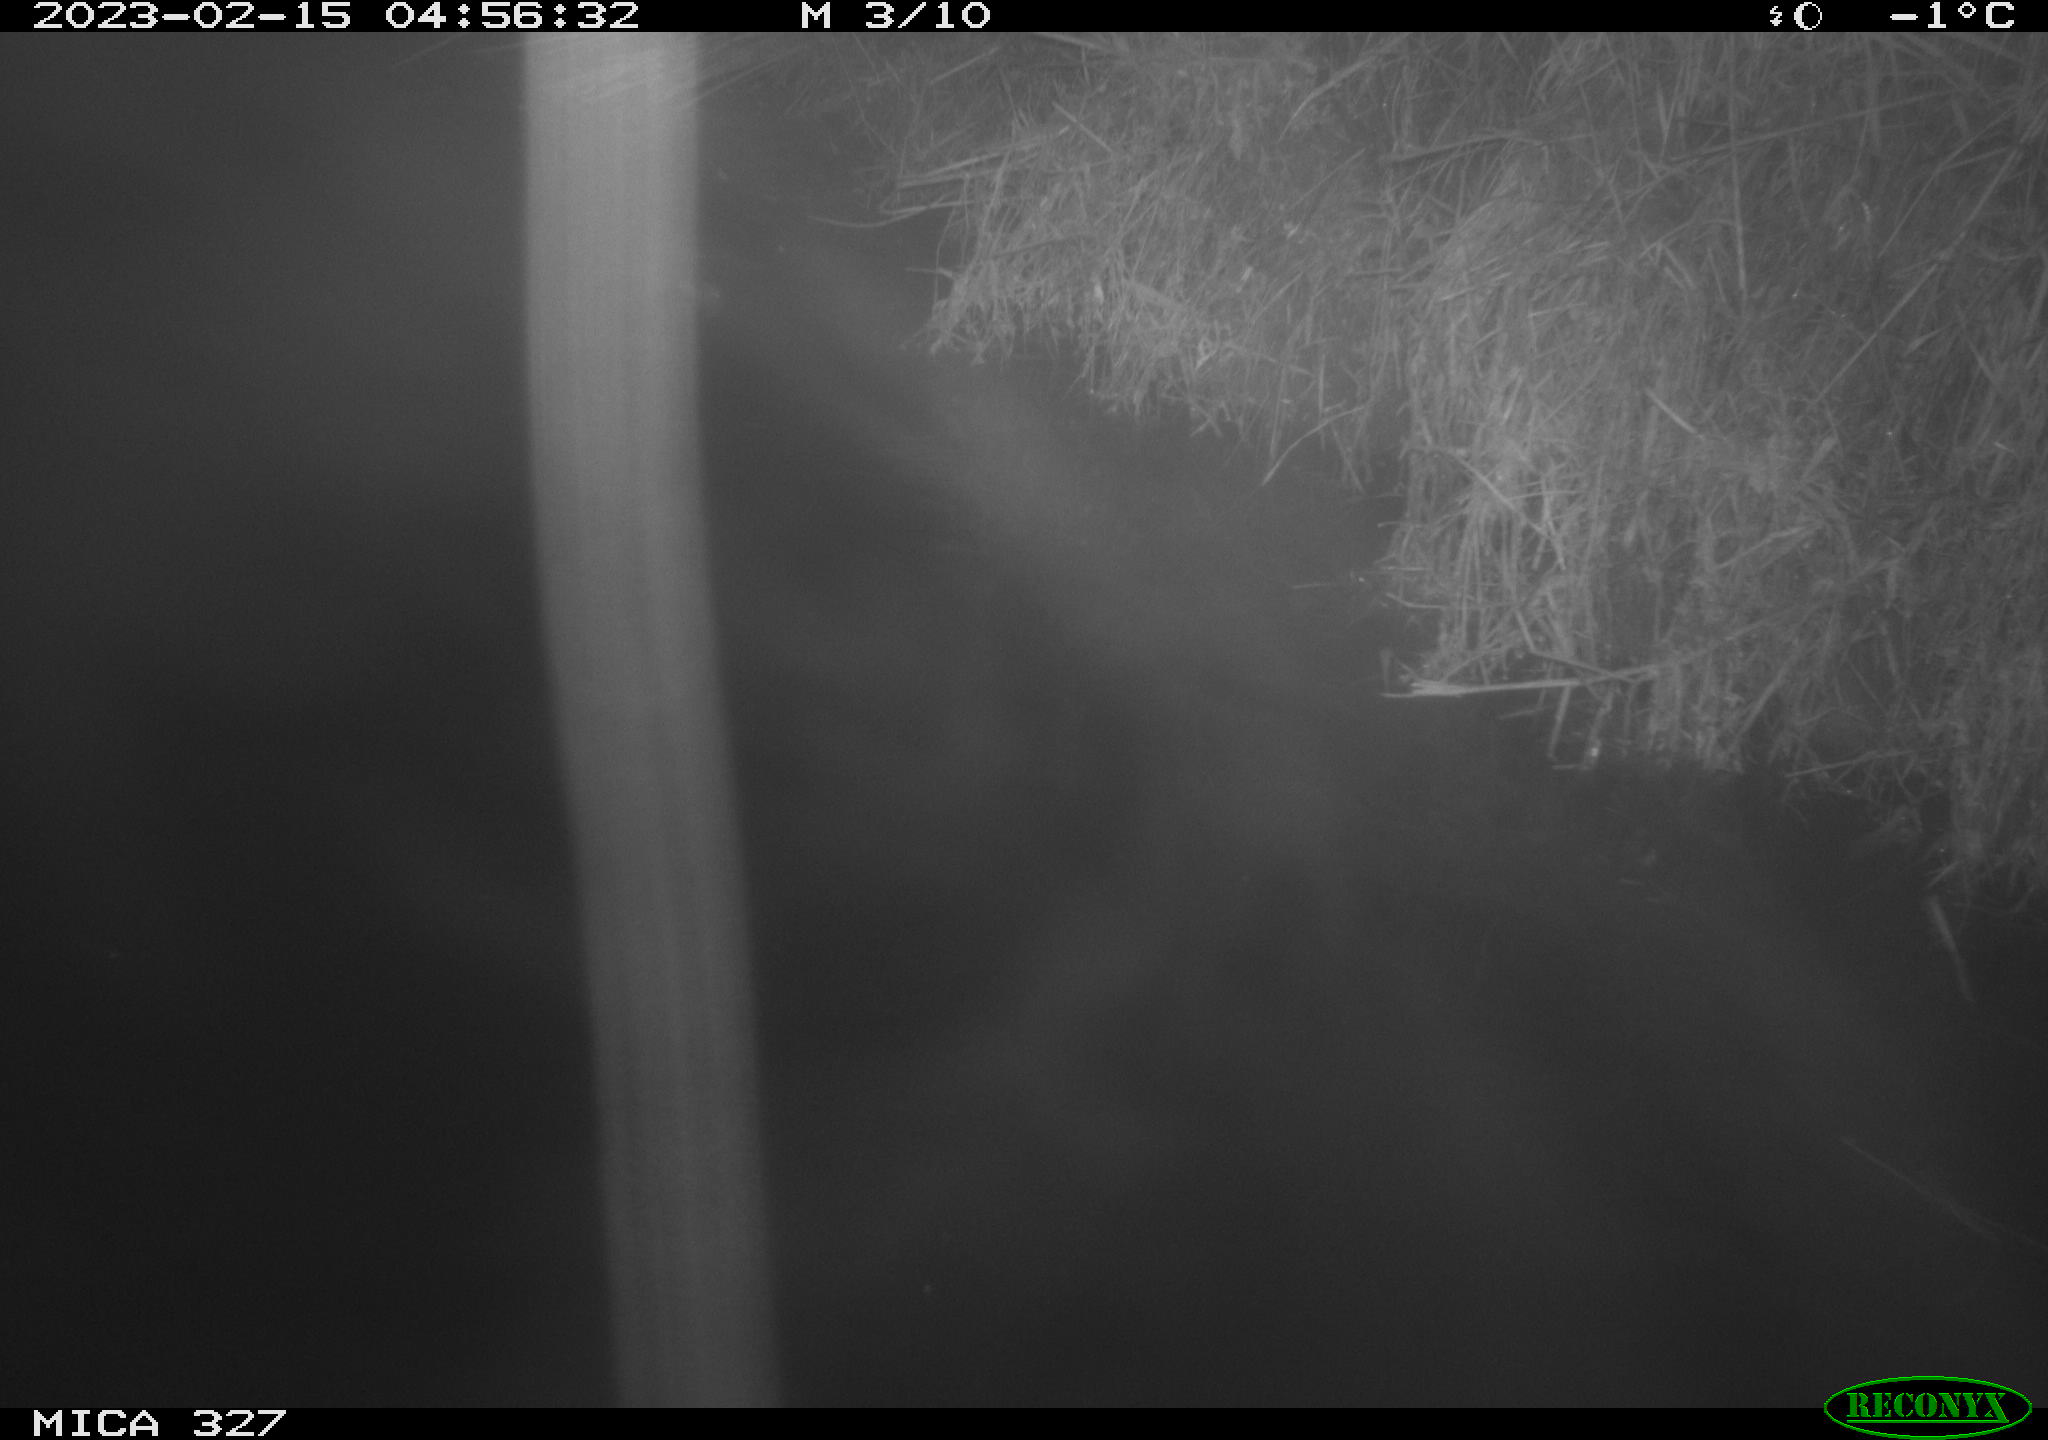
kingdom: Animalia
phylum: Chordata
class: Mammalia
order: Rodentia
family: Cricetidae
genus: Ondatra
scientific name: Ondatra zibethicus
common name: Muskrat
